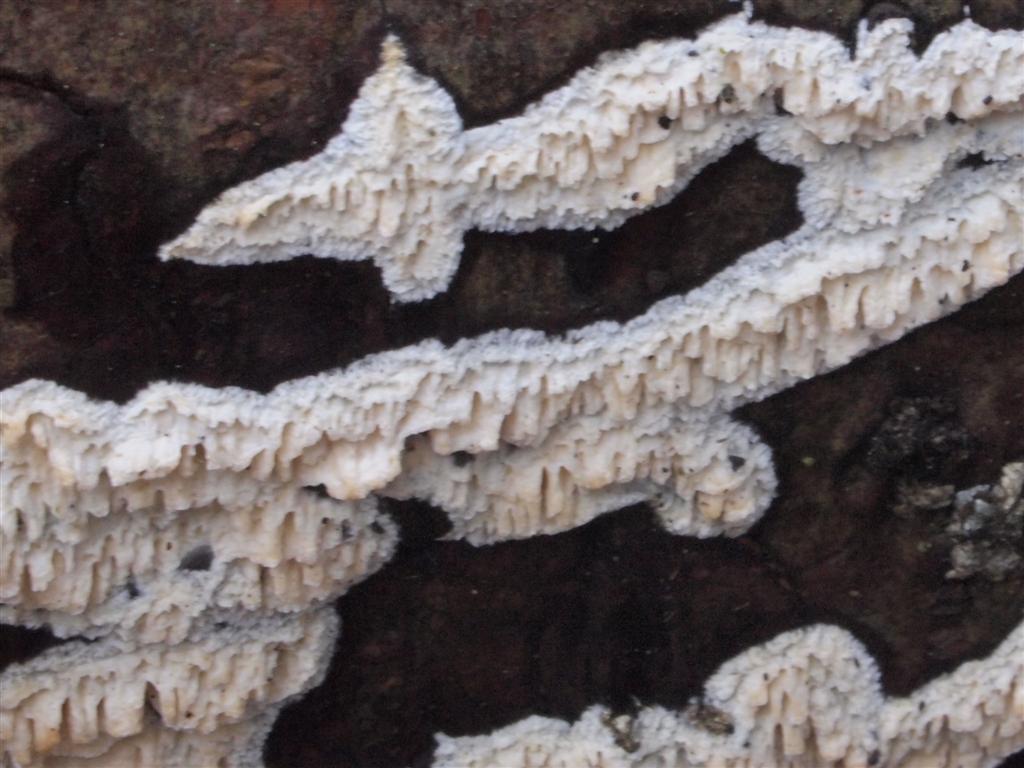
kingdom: Fungi
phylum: Basidiomycota
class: Agaricomycetes
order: Hymenochaetales
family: Schizoporaceae
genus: Xylodon
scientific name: Xylodon radula
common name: grovtandet kalkskind
